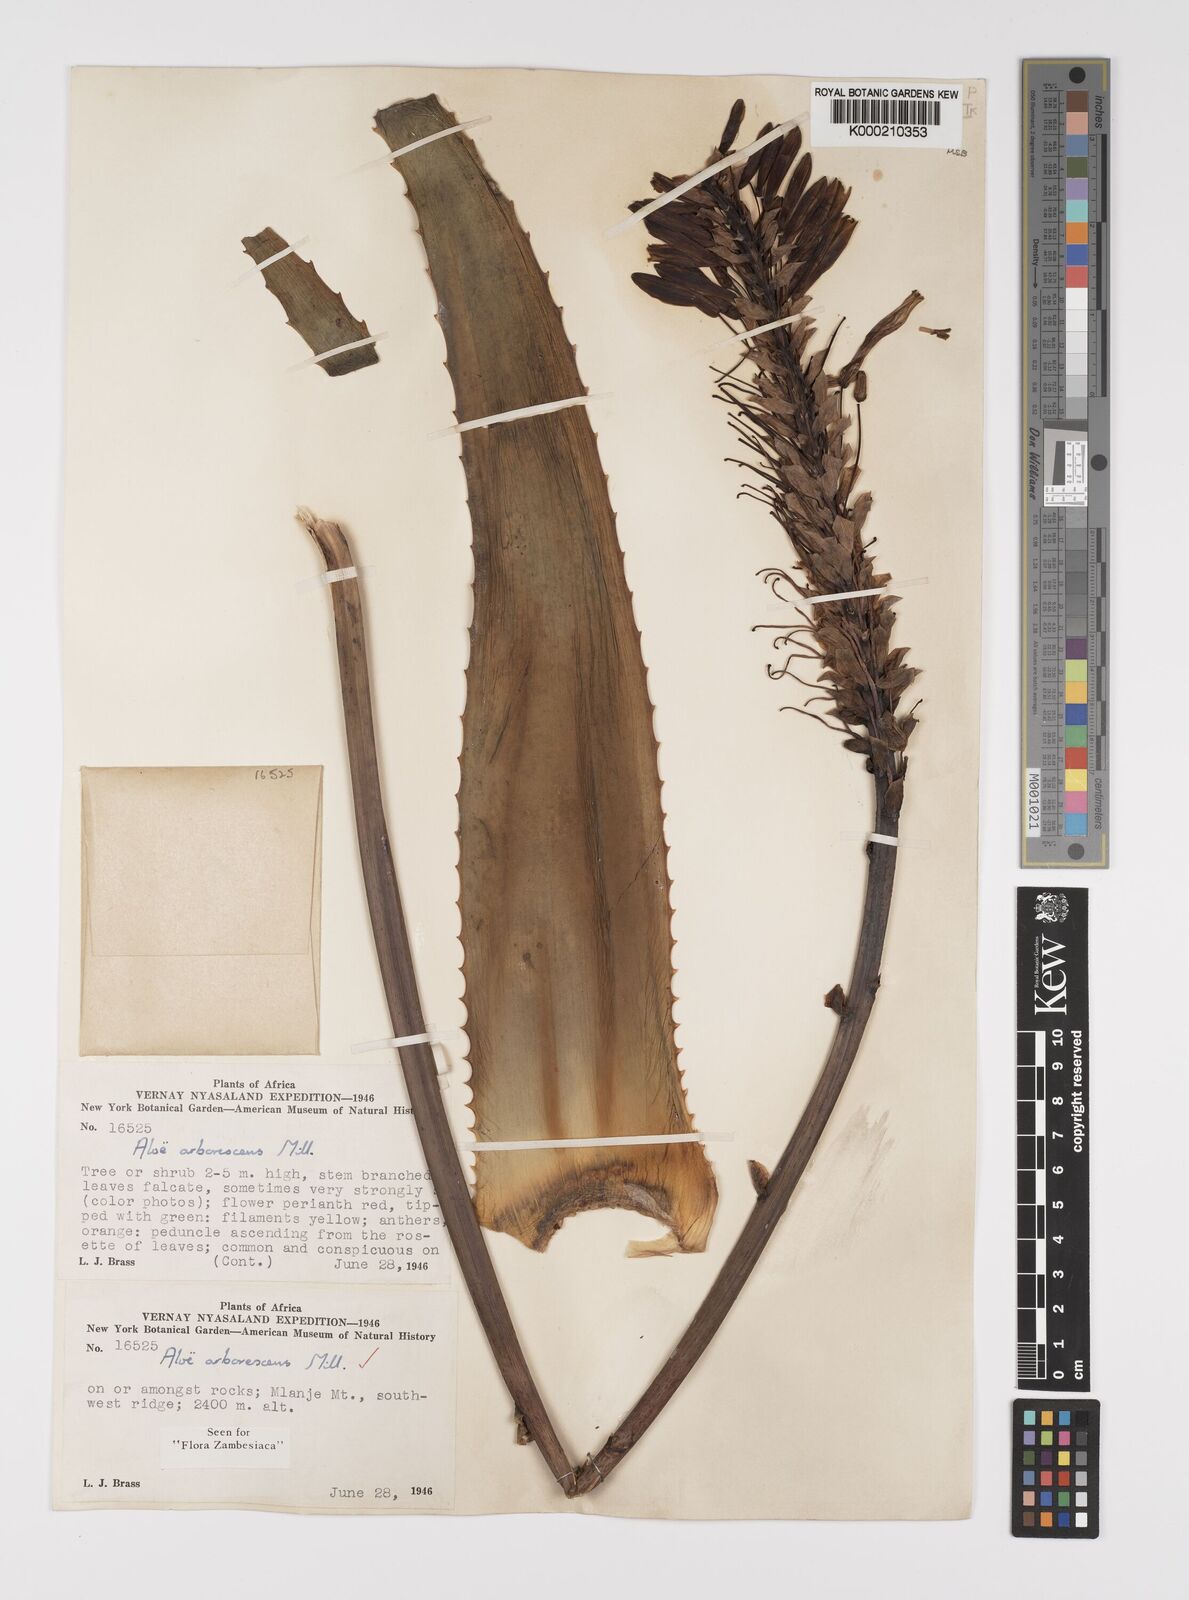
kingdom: Plantae
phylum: Tracheophyta
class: Liliopsida
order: Asparagales
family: Asphodelaceae
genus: Aloe
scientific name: Aloe arborescens
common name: Candelabra aloe
